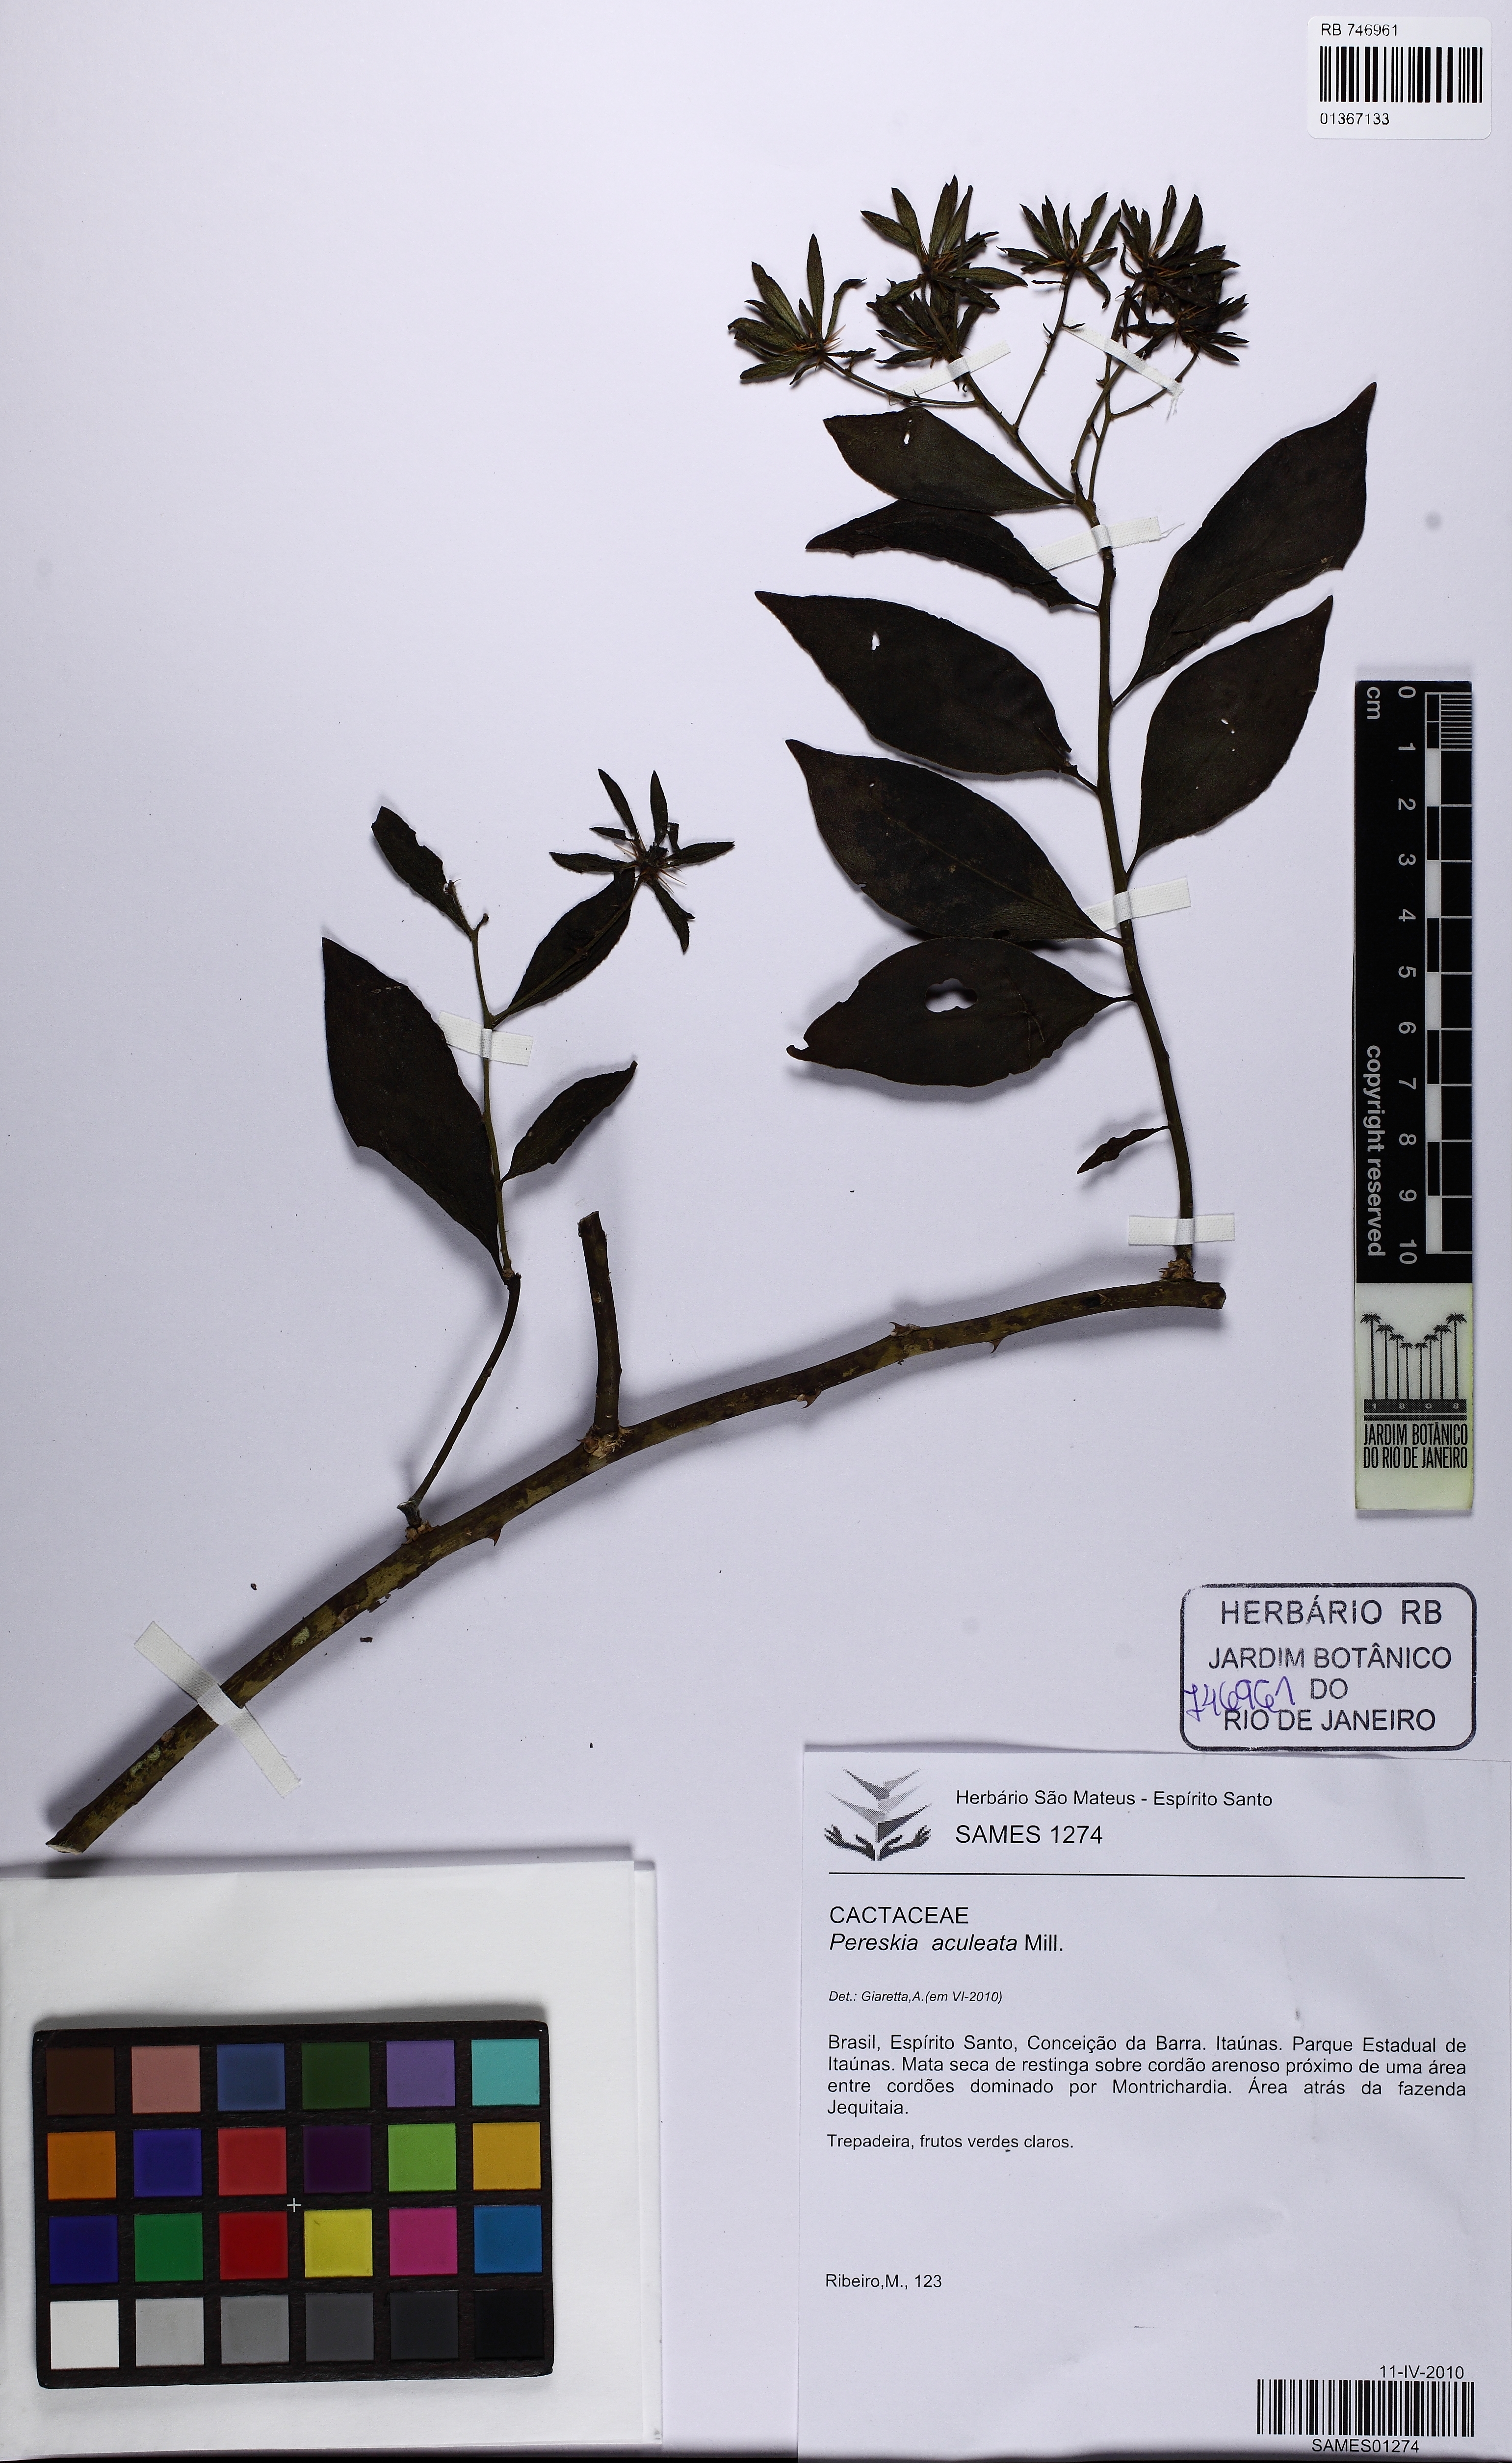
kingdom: Plantae
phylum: Tracheophyta
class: Magnoliopsida
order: Caryophyllales
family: Cactaceae
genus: Pereskia
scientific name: Pereskia aculeata
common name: Barbados gooseberry
